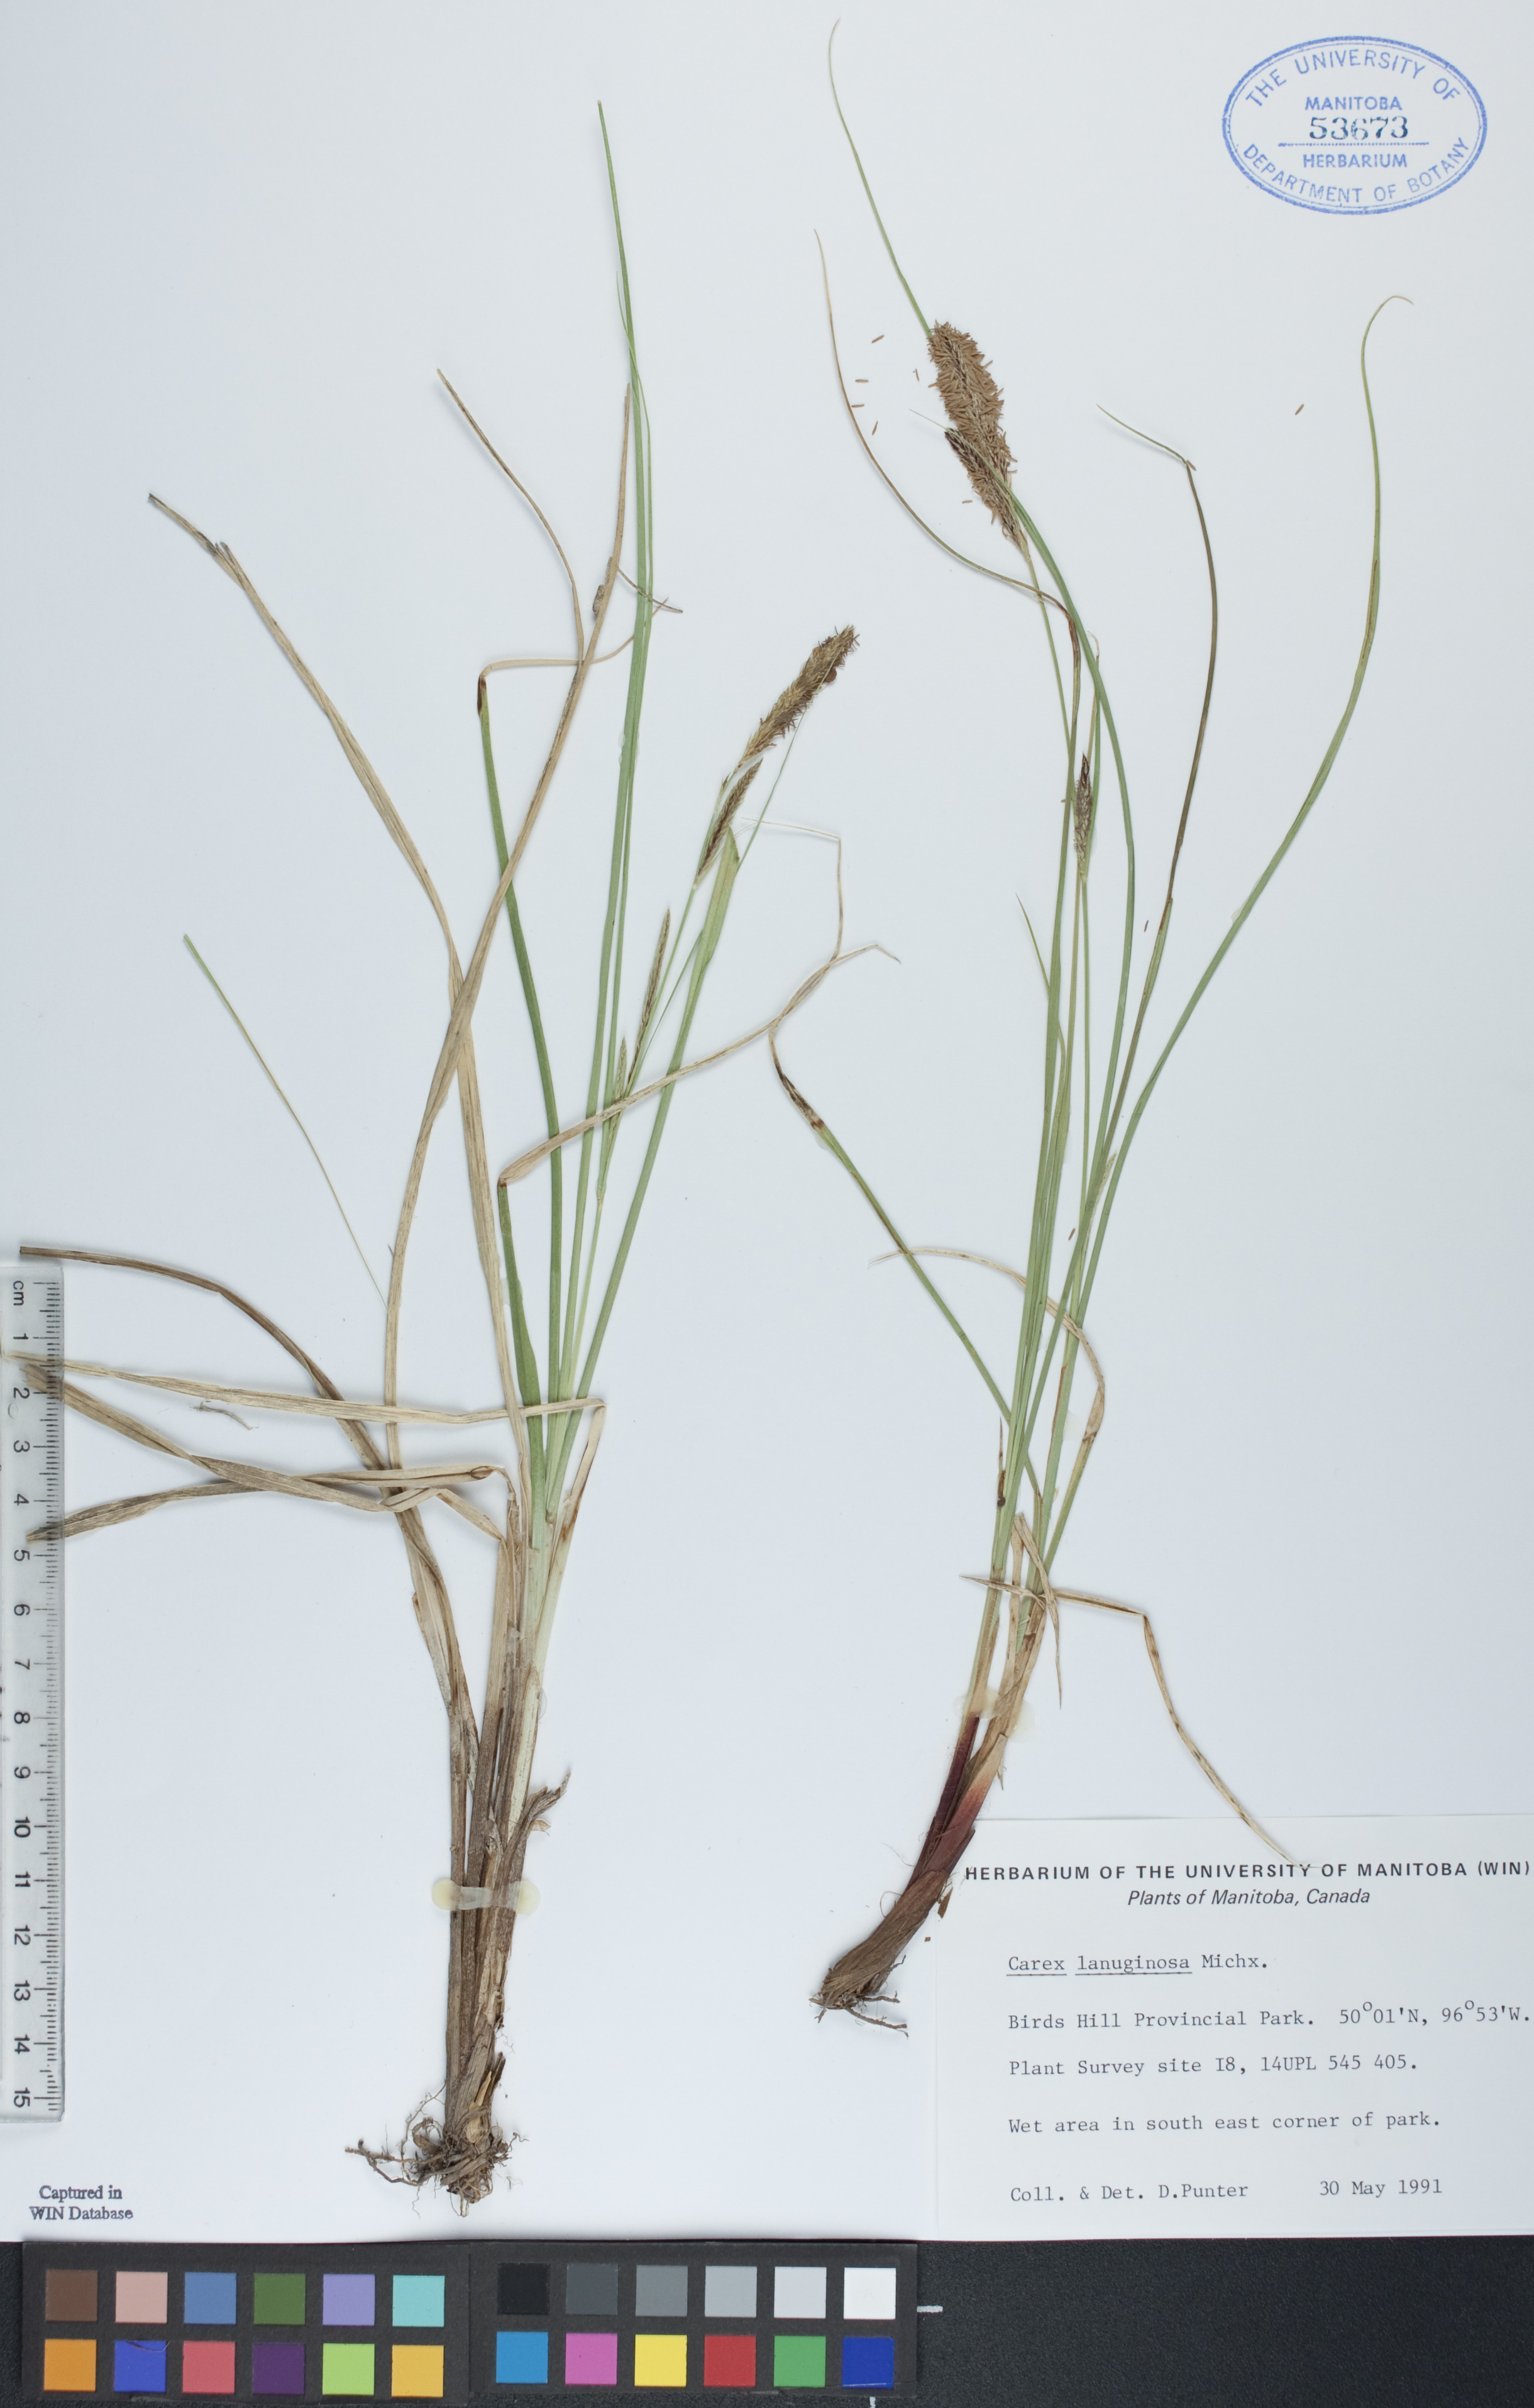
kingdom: Plantae
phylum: Tracheophyta
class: Liliopsida
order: Poales
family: Cyperaceae
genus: Carex
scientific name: Carex lasiocarpa
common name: Slender sedge
